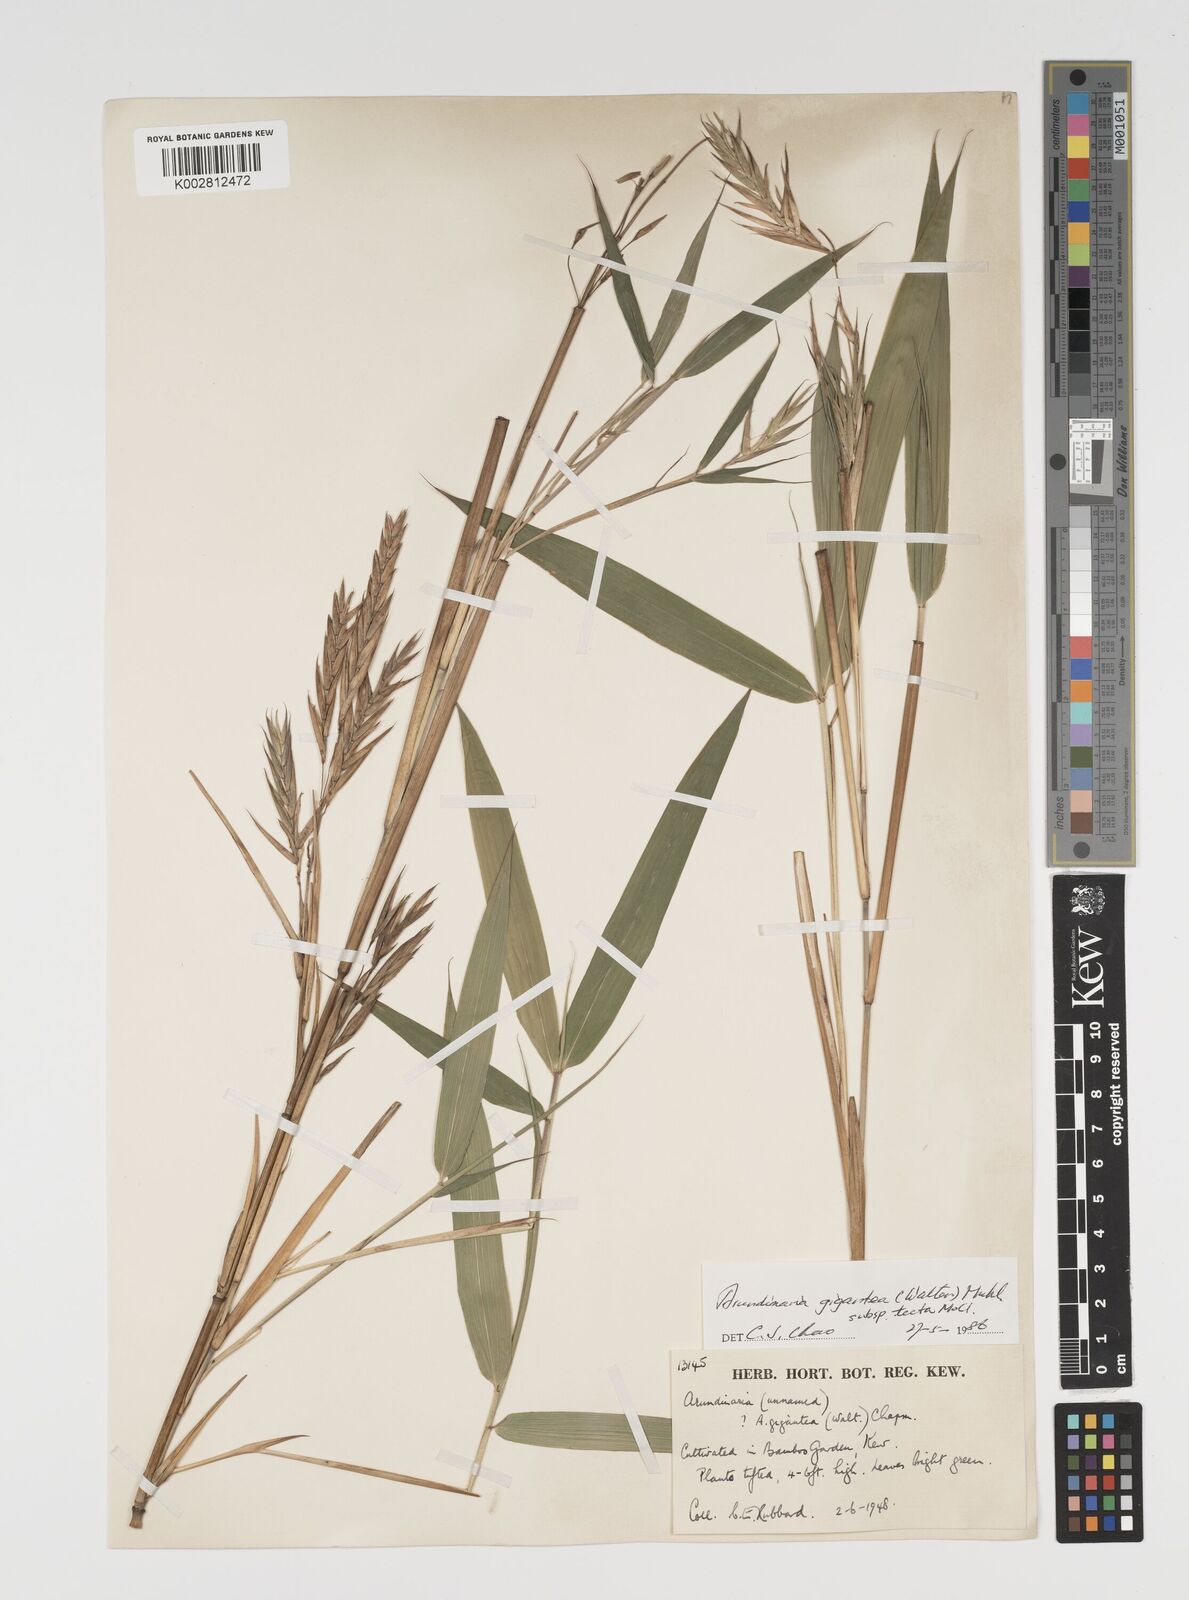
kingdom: Plantae
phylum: Tracheophyta
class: Liliopsida
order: Poales
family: Poaceae
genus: Arundinaria
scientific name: Arundinaria tecta
